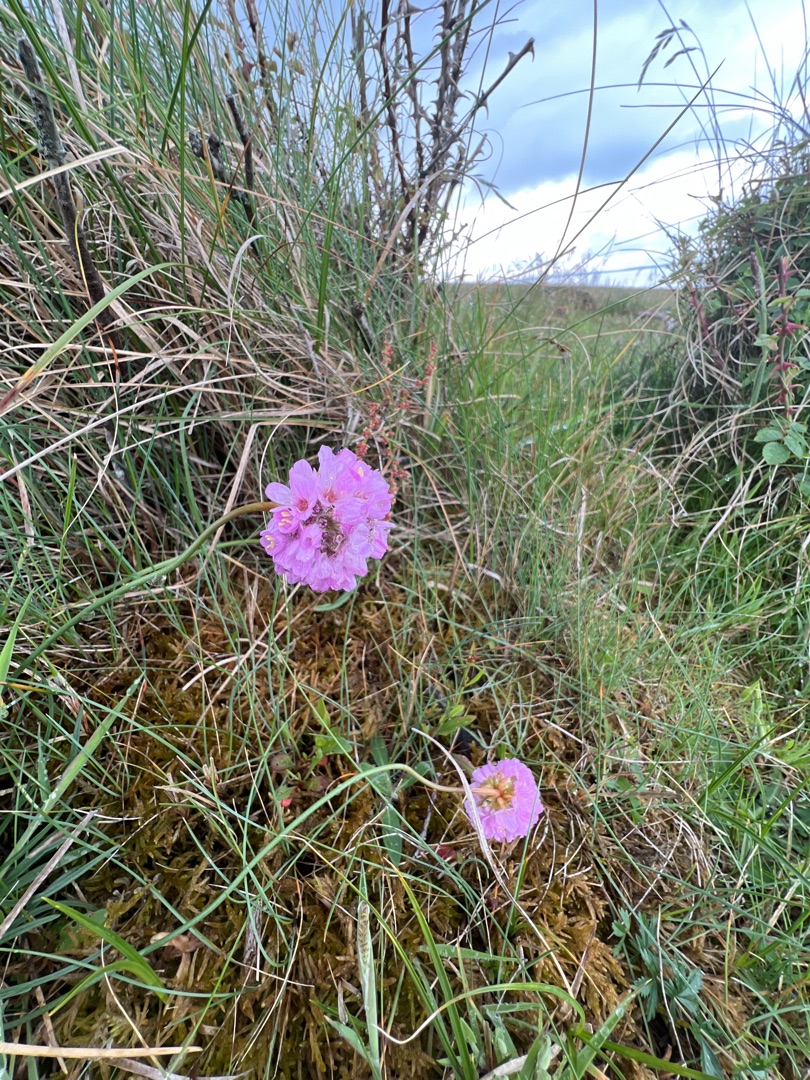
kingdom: Plantae
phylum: Tracheophyta
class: Magnoliopsida
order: Caryophyllales
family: Plumbaginaceae
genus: Armeria
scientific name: Armeria maritima
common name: Engelskgræs
